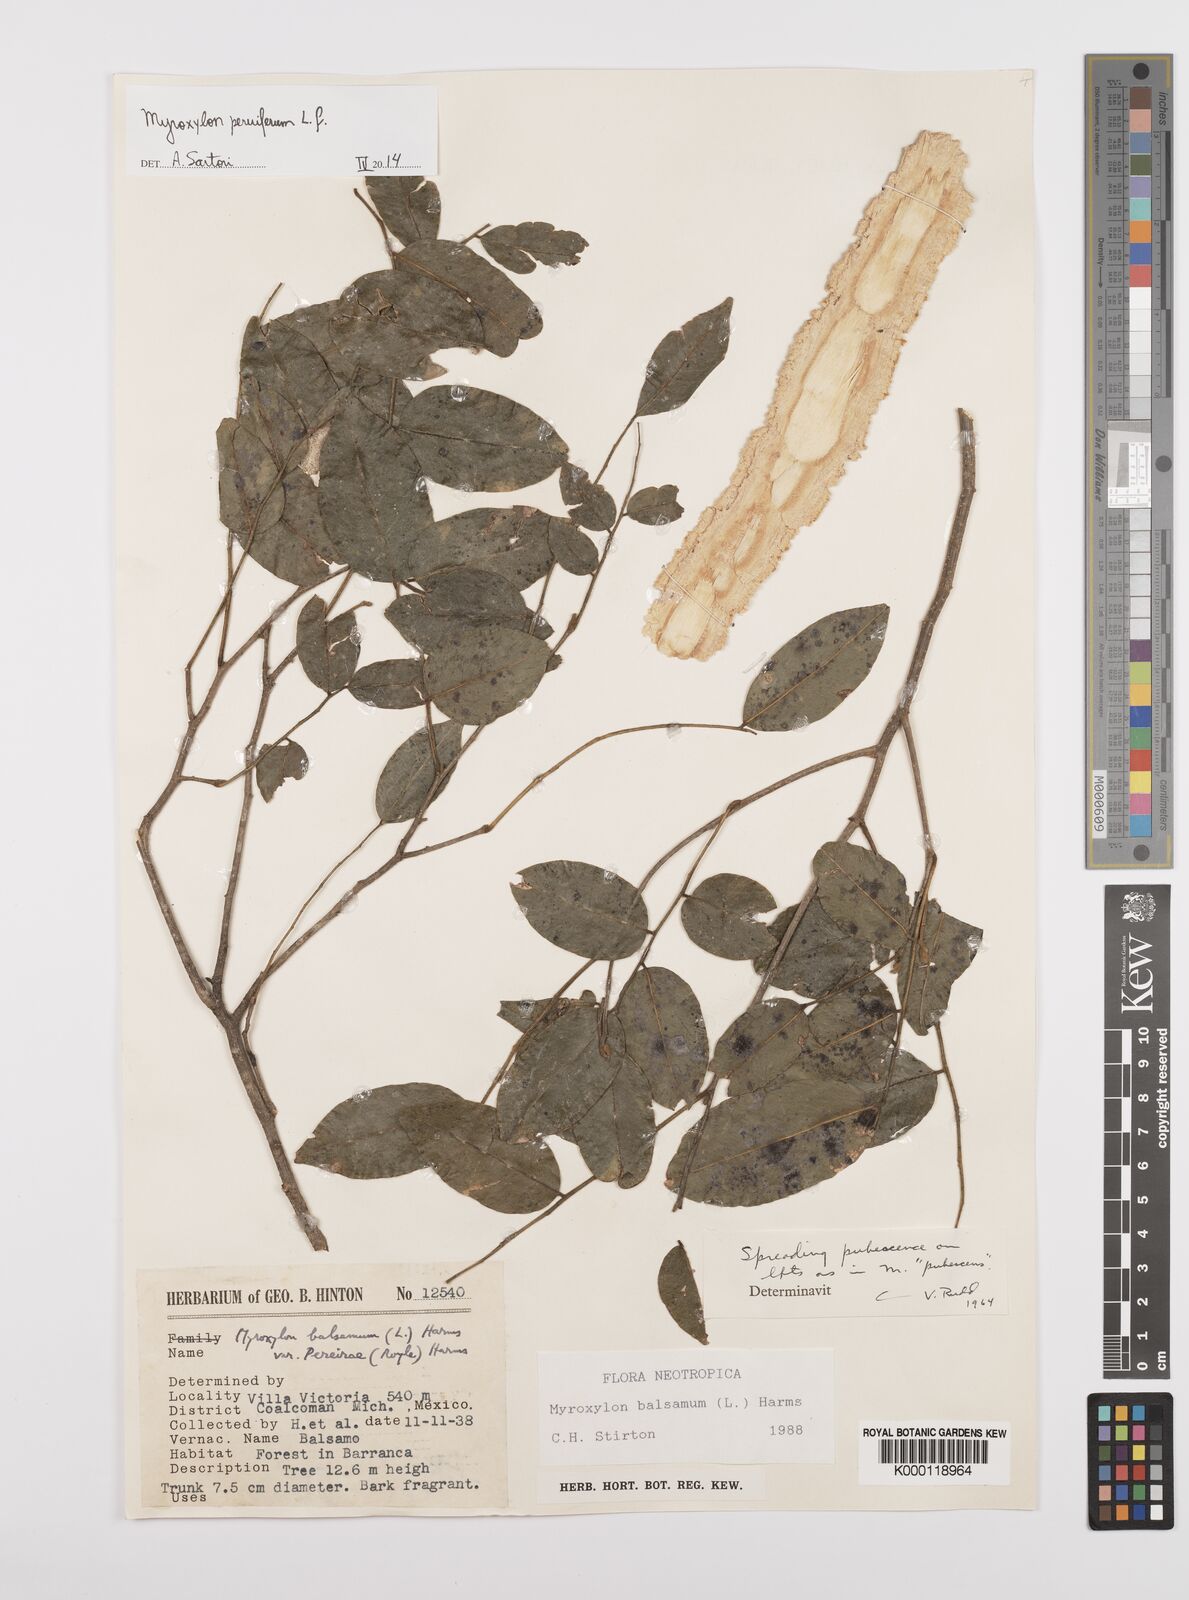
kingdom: Plantae
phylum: Tracheophyta
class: Magnoliopsida
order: Fabales
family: Fabaceae
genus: Myroxylon
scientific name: Myroxylon balsamum
